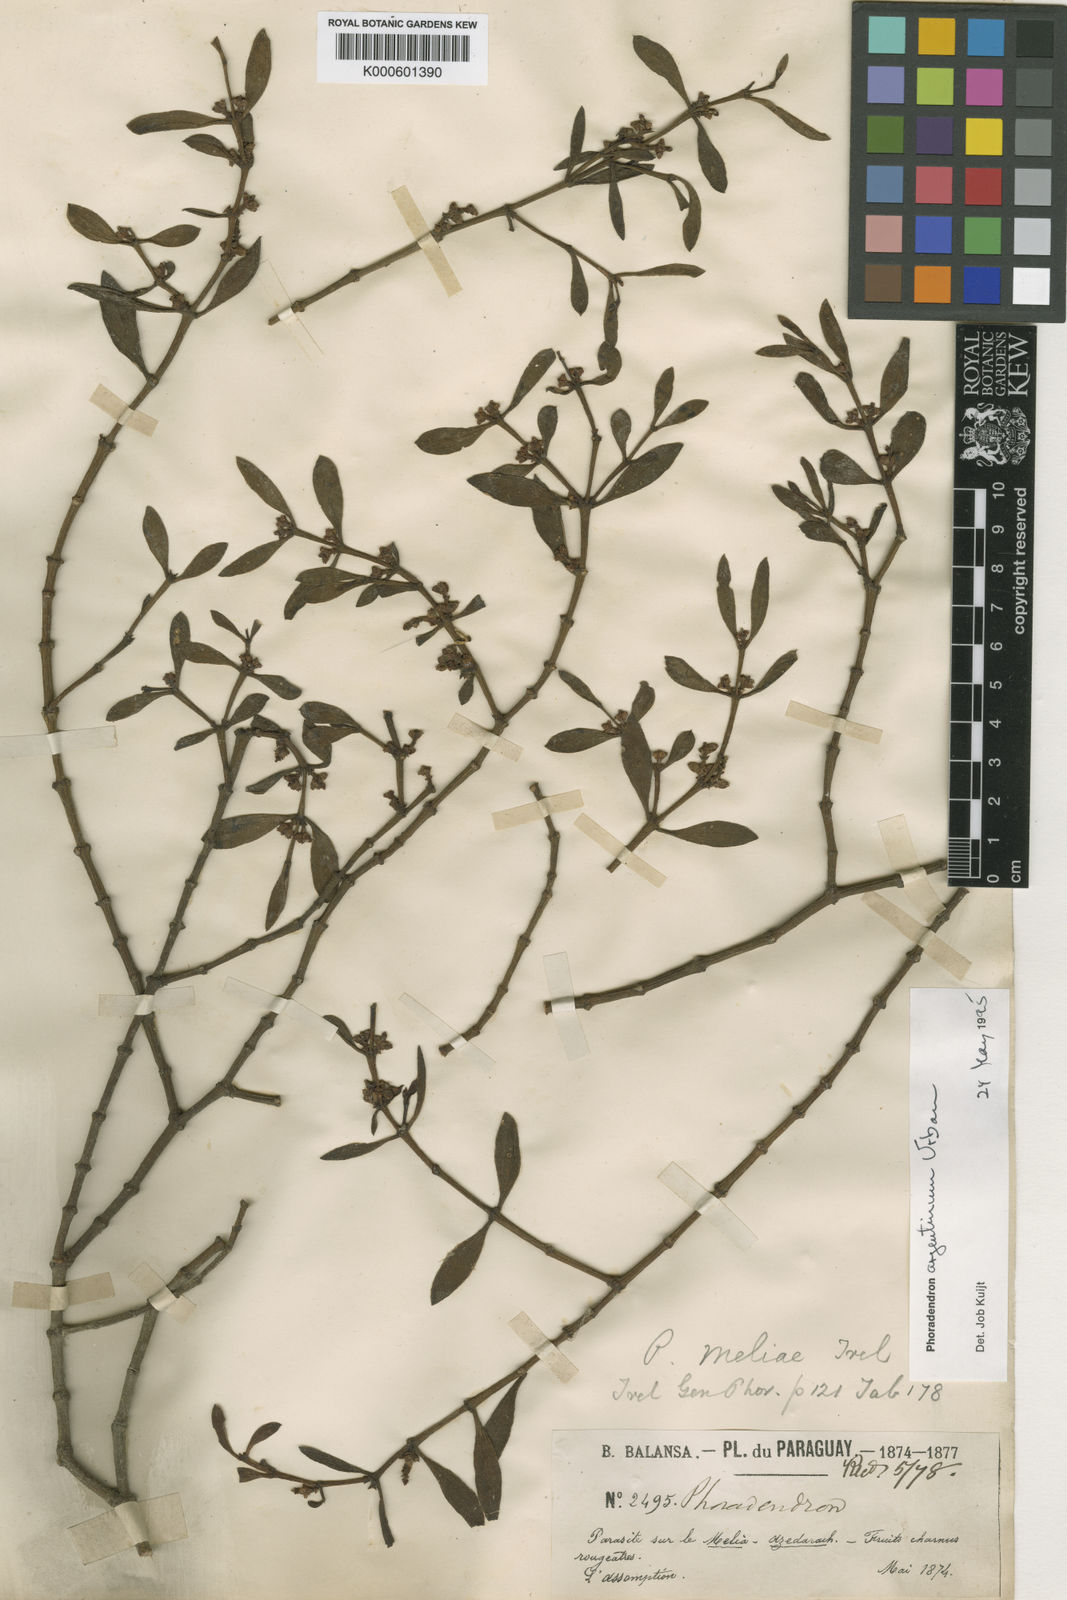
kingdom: Plantae
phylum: Tracheophyta
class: Magnoliopsida
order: Santalales
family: Viscaceae
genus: Phoradendron
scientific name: Phoradendron argentinum
